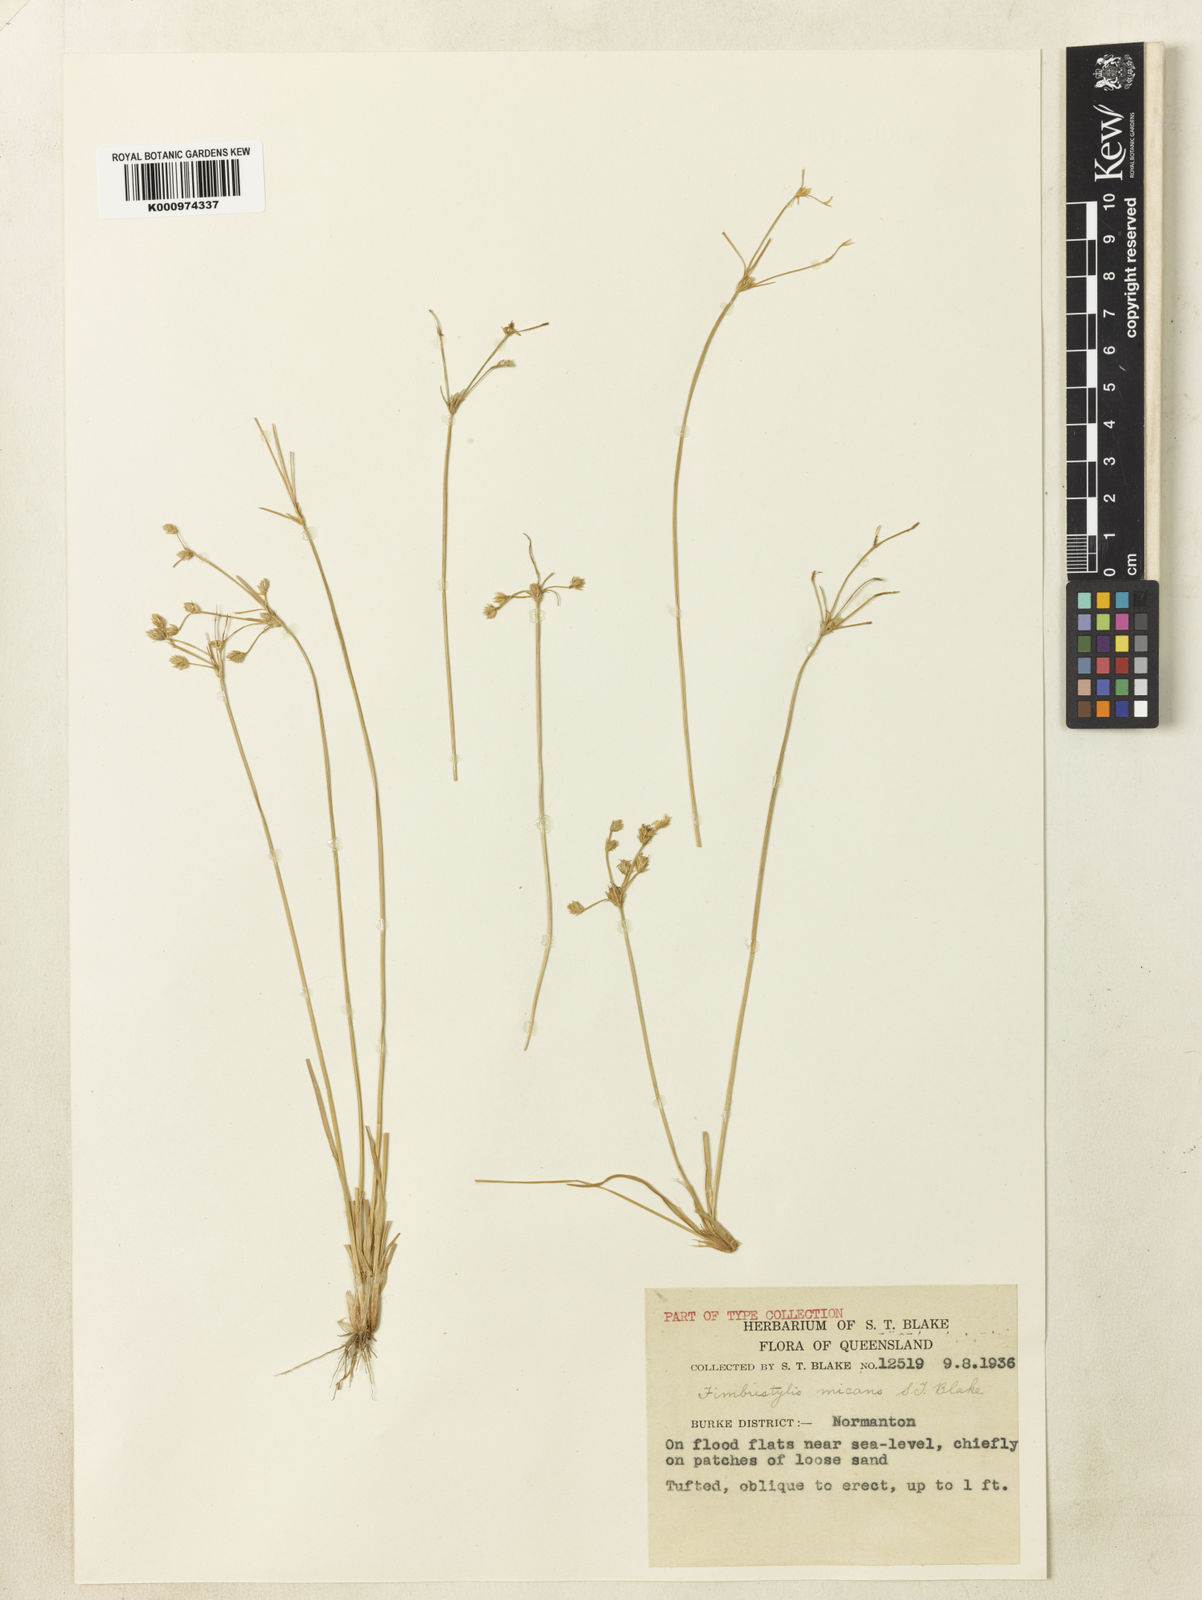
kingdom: Plantae
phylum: Tracheophyta
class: Liliopsida
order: Poales
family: Cyperaceae
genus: Fimbristylis
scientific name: Fimbristylis micans
